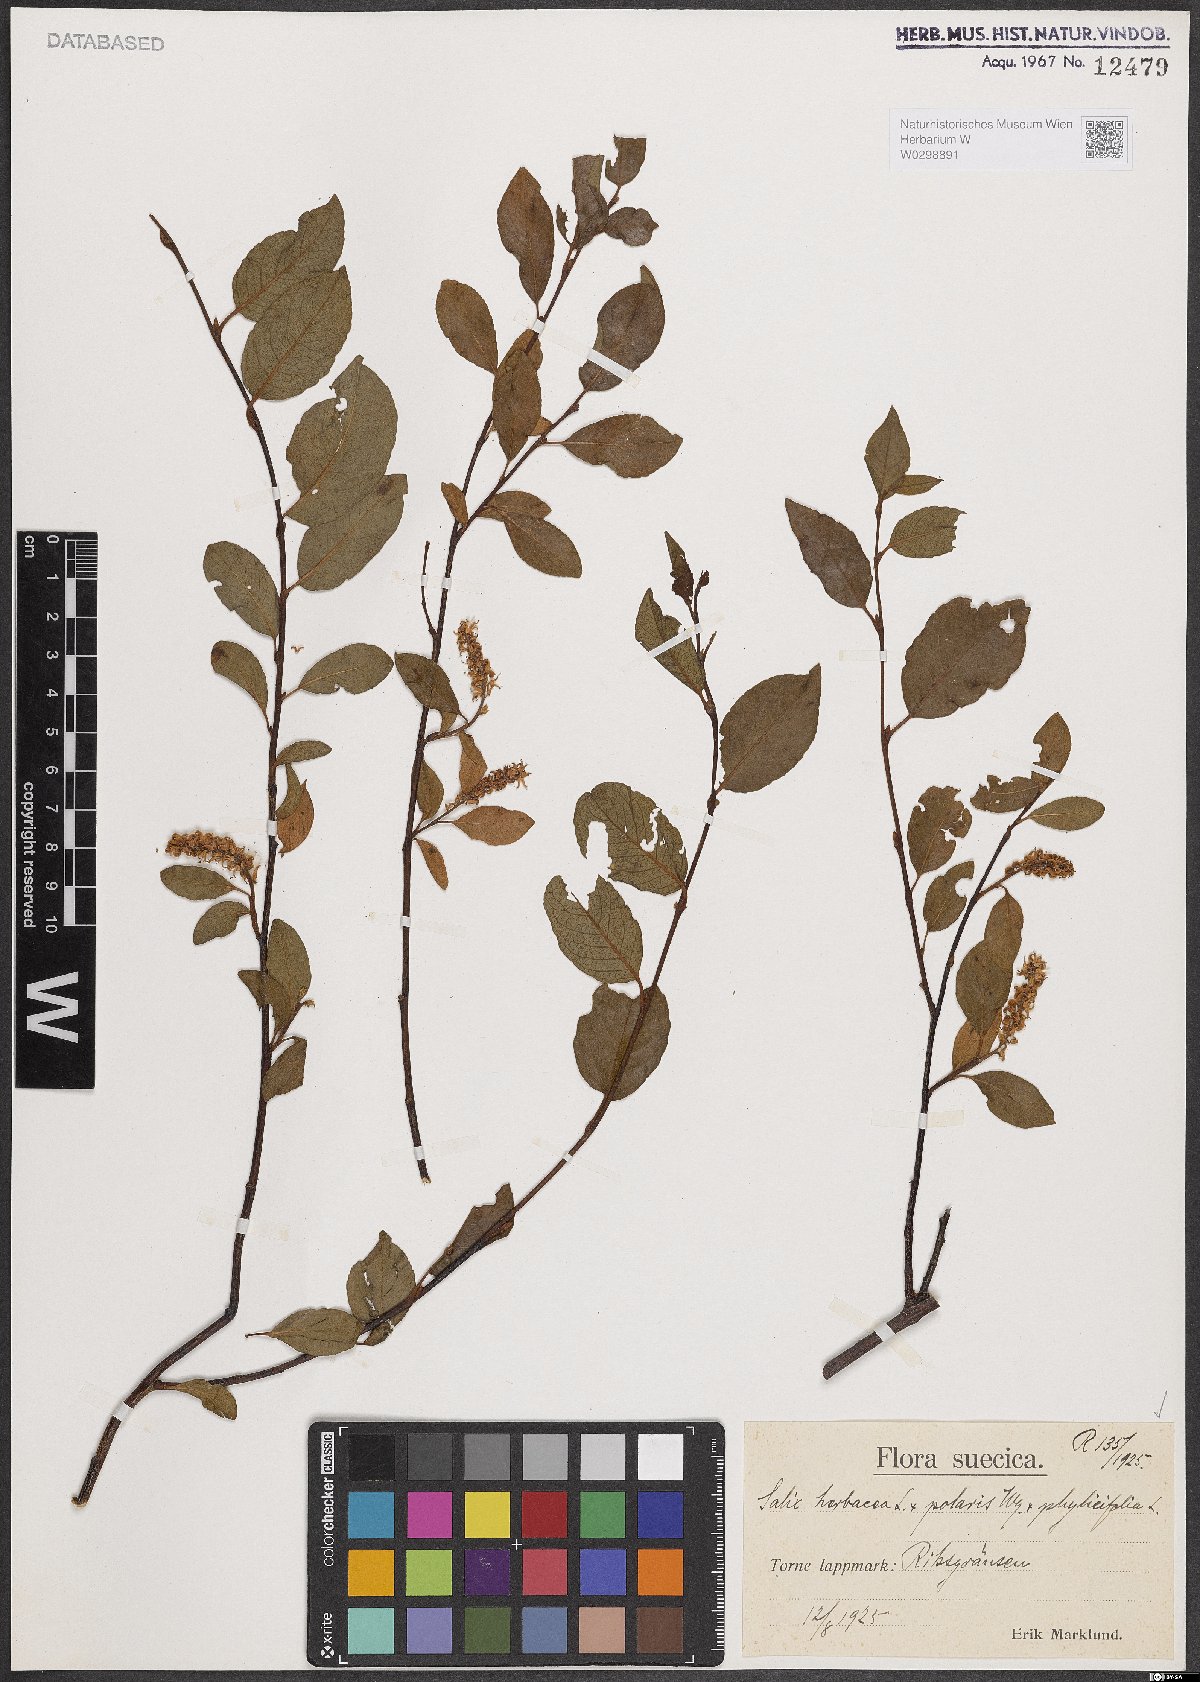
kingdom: Plantae
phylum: Tracheophyta
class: Magnoliopsida
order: Malpighiales
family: Salicaceae
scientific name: Salicaceae
